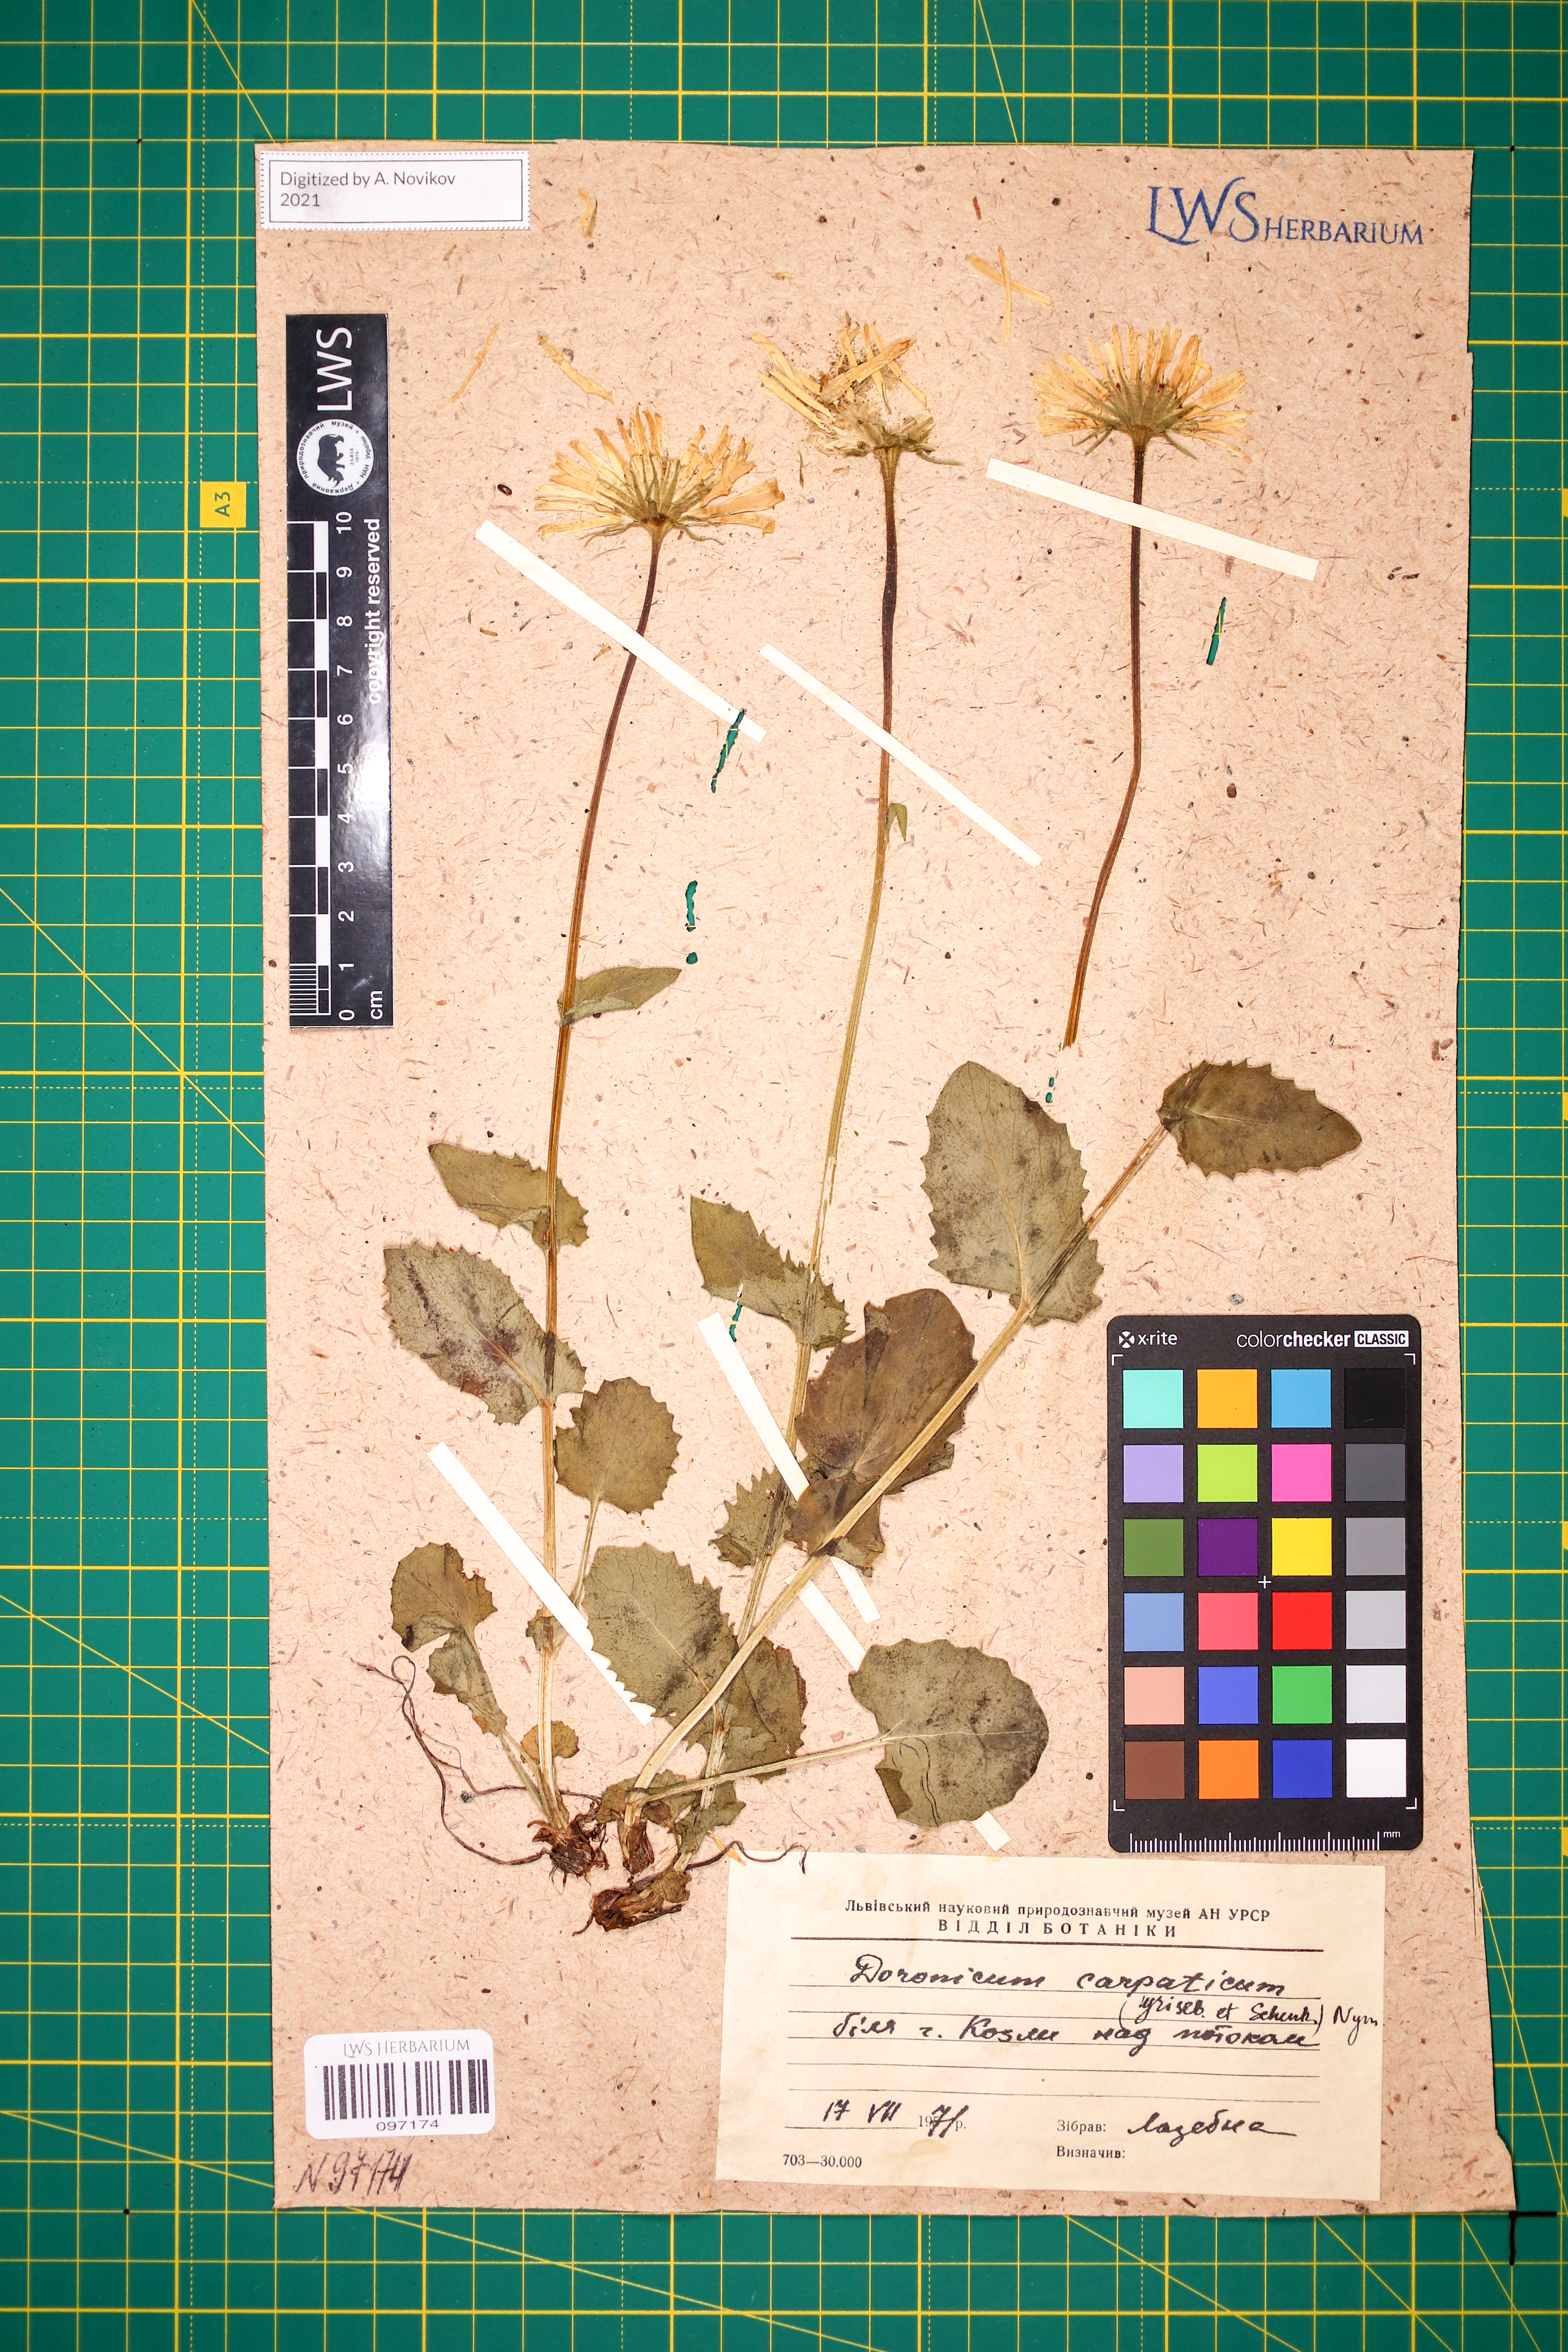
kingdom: Plantae
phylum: Tracheophyta
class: Magnoliopsida
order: Asterales
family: Asteraceae
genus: Doronicum
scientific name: Doronicum carpaticum
